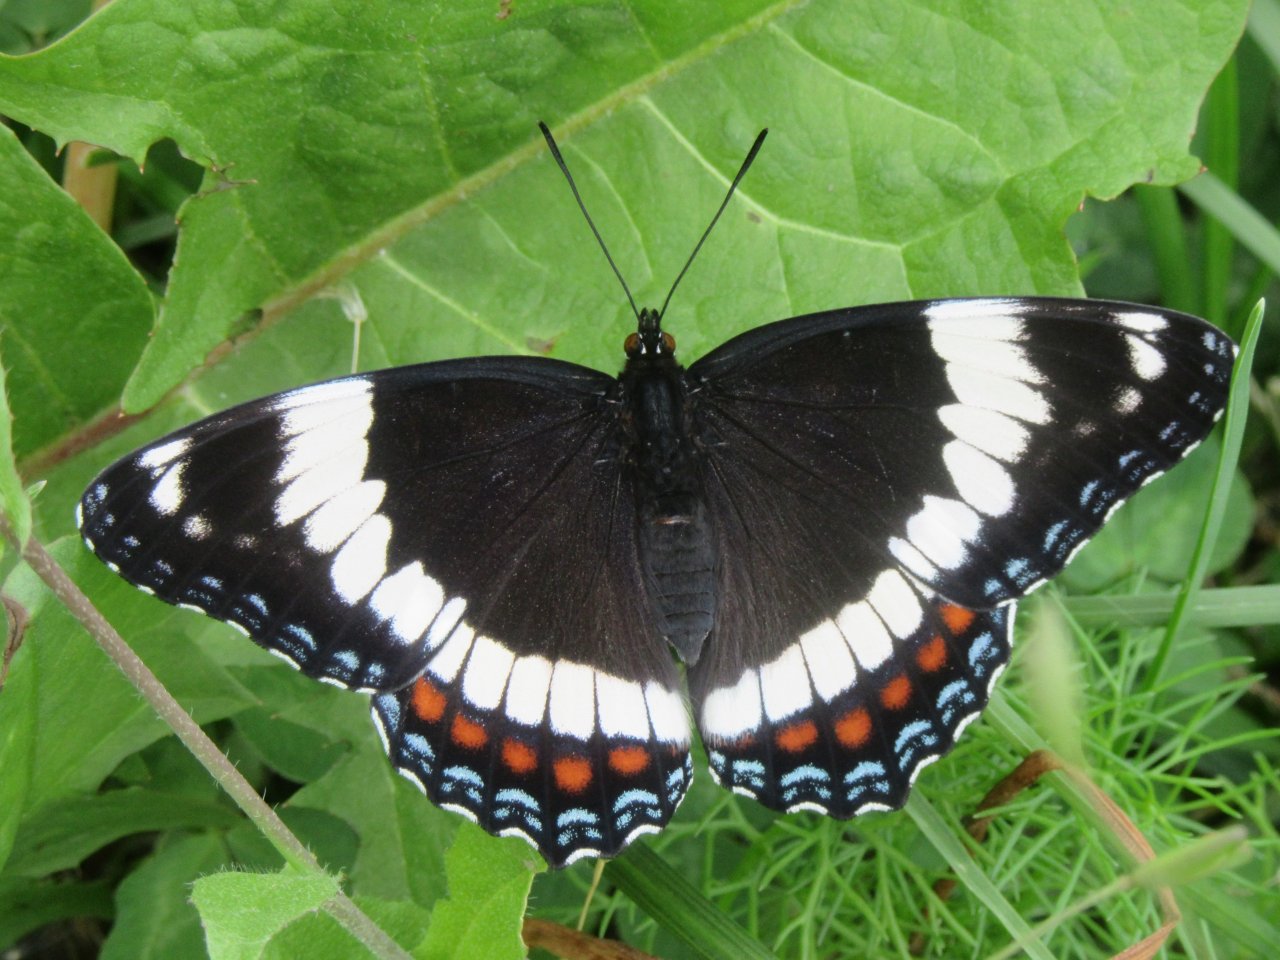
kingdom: Animalia
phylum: Arthropoda
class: Insecta
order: Lepidoptera
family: Nymphalidae
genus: Limenitis
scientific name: Limenitis arthemis
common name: Red-spotted Admiral
